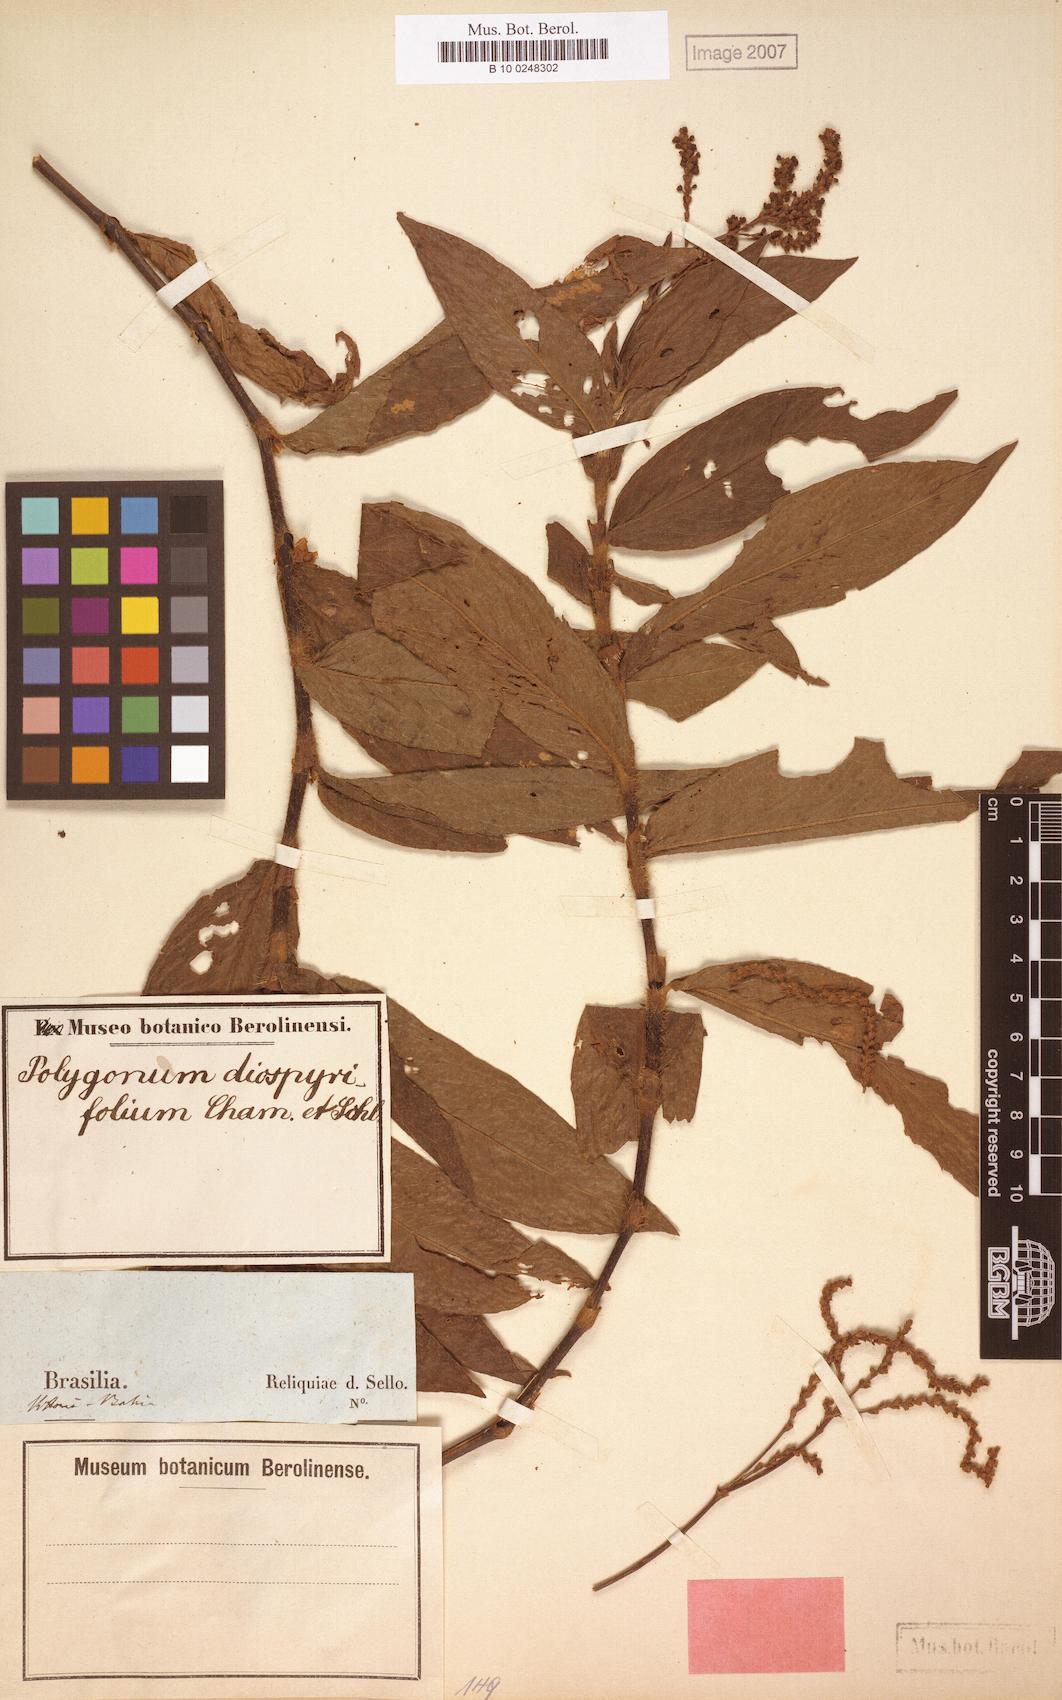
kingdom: Plantae
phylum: Tracheophyta
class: Magnoliopsida
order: Caryophyllales
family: Polygonaceae
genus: Persicaria
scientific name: Persicaria diospyrifolia
